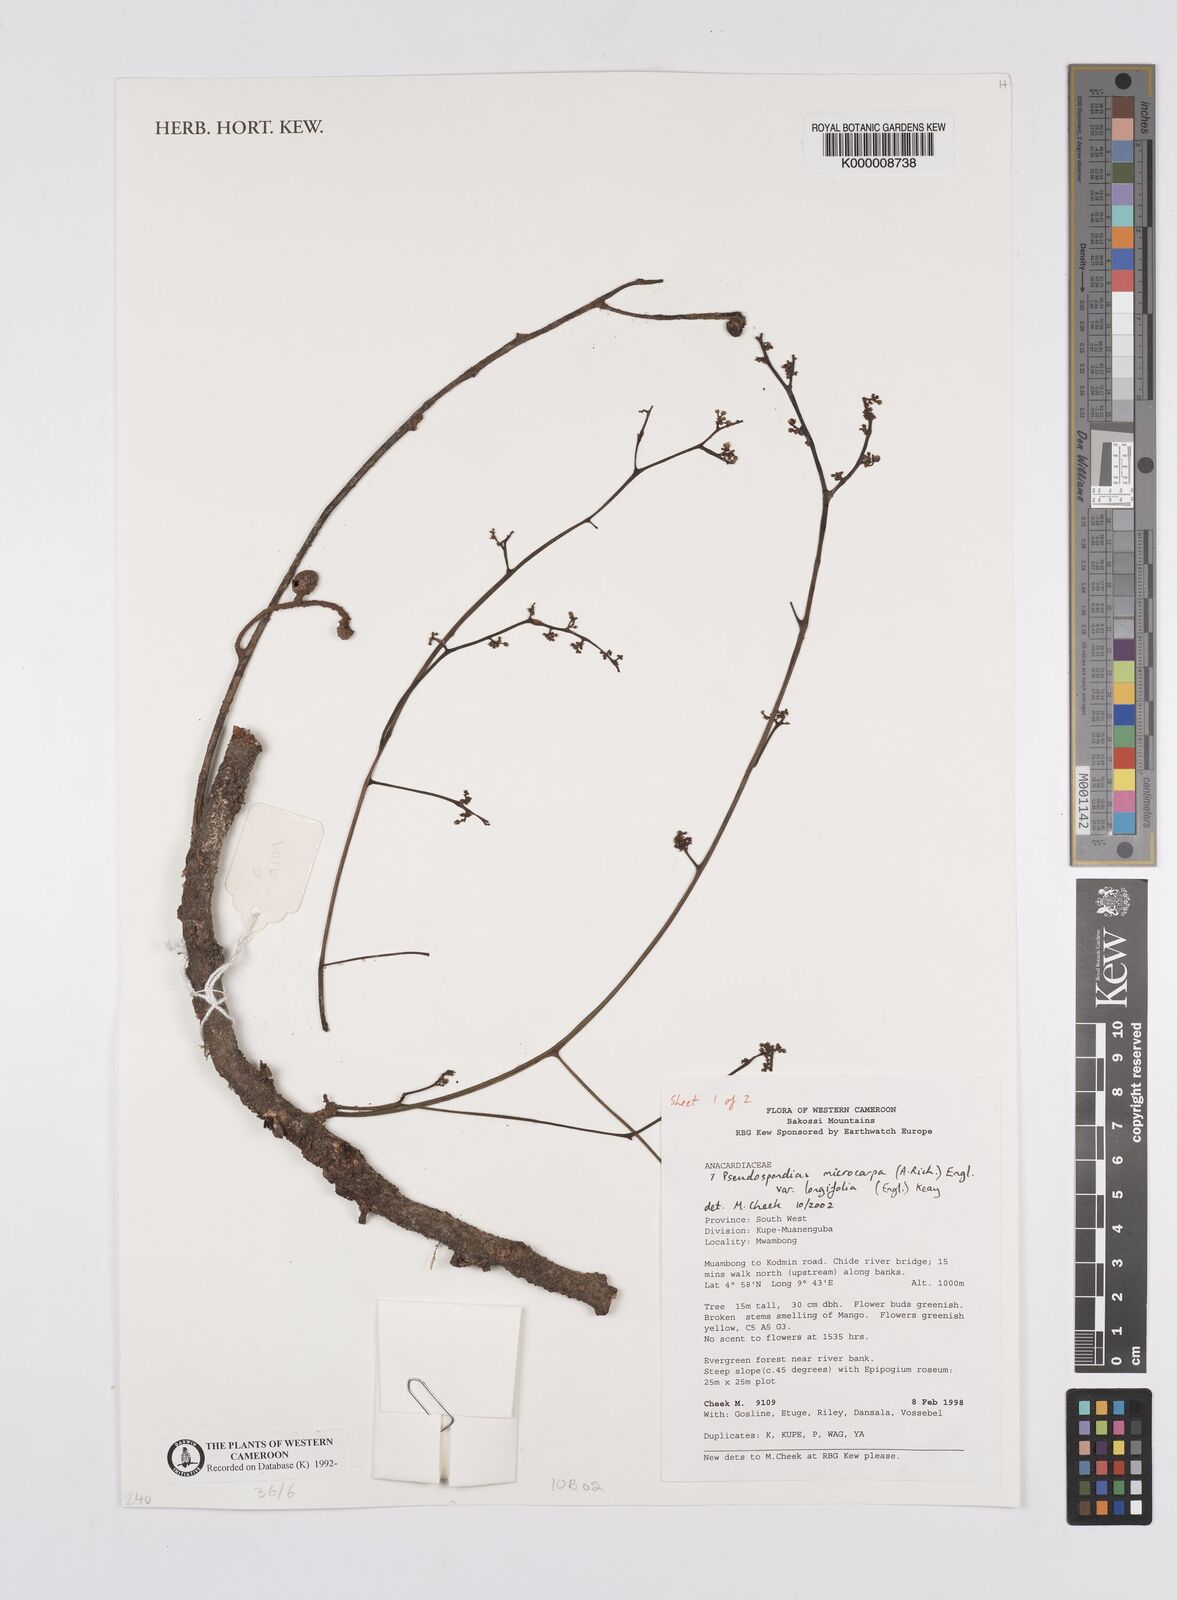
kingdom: Plantae
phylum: Tracheophyta
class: Magnoliopsida
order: Sapindales
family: Anacardiaceae
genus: Pseudospondias
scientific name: Pseudospondias microcarpa
